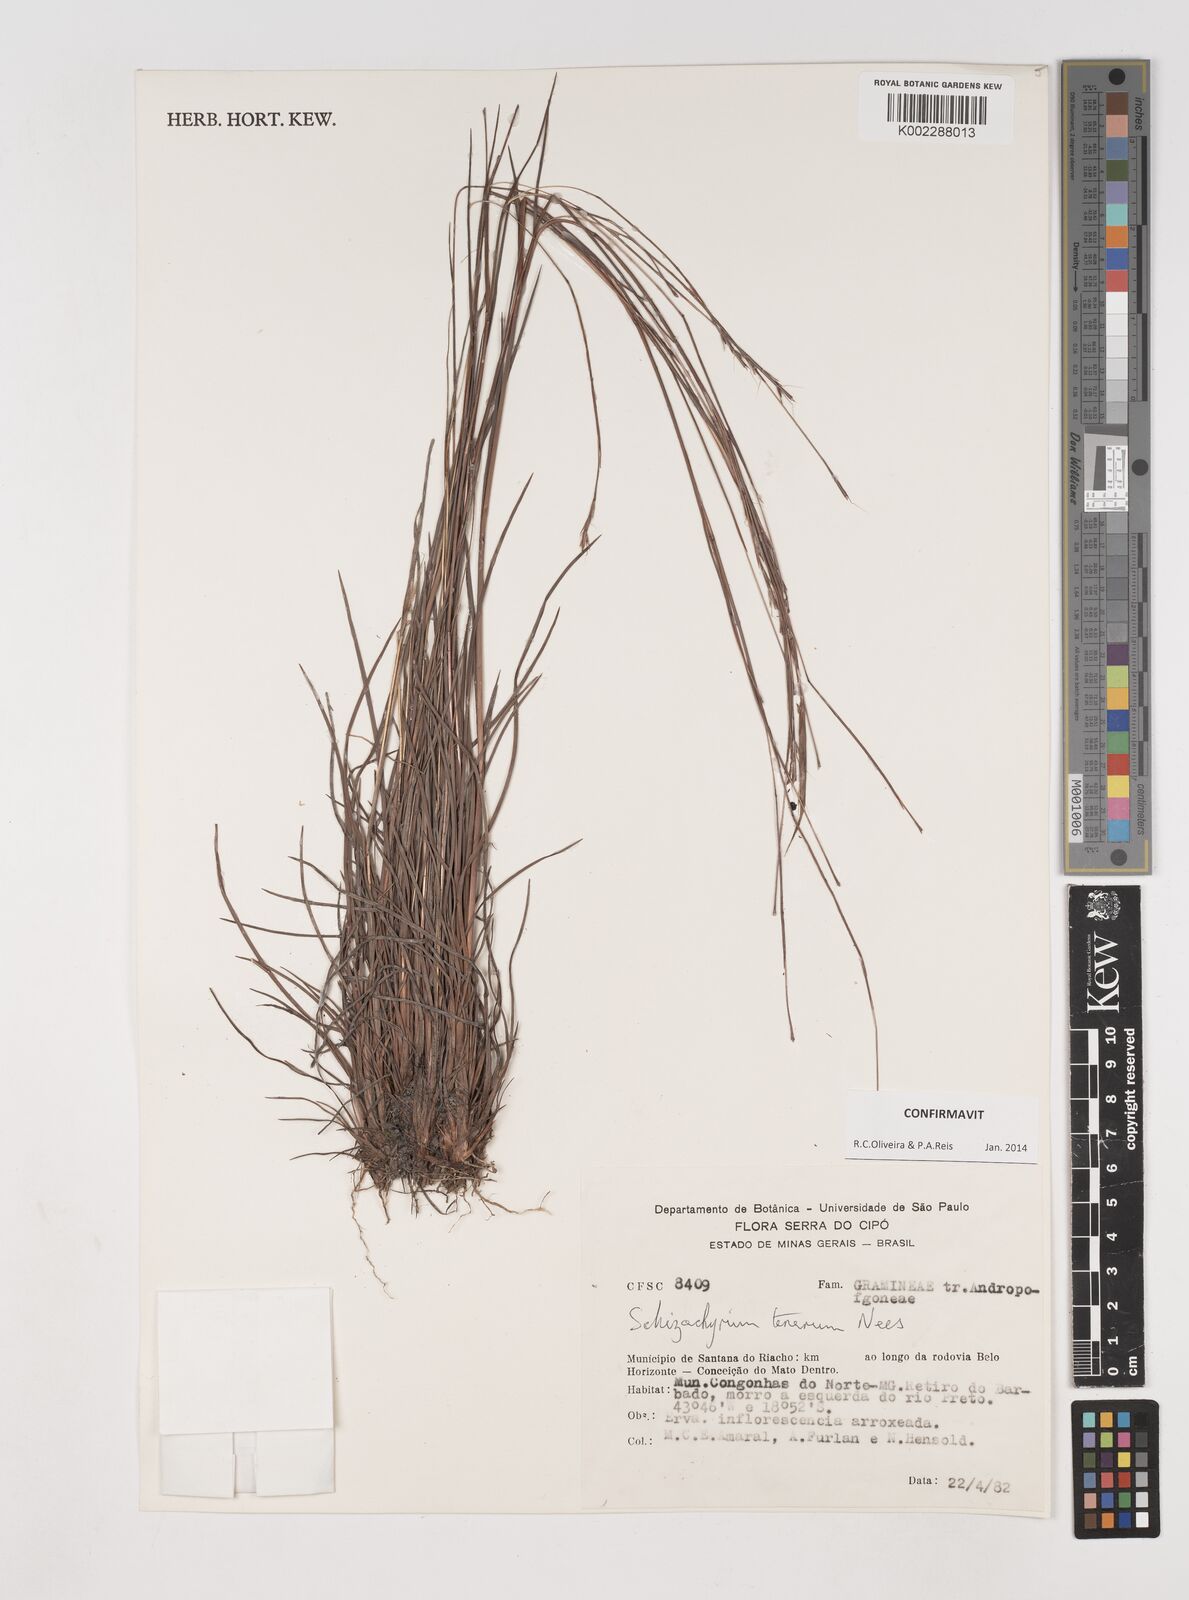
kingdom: Plantae
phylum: Tracheophyta
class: Liliopsida
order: Poales
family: Poaceae
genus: Andropogon
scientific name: Andropogon tener
